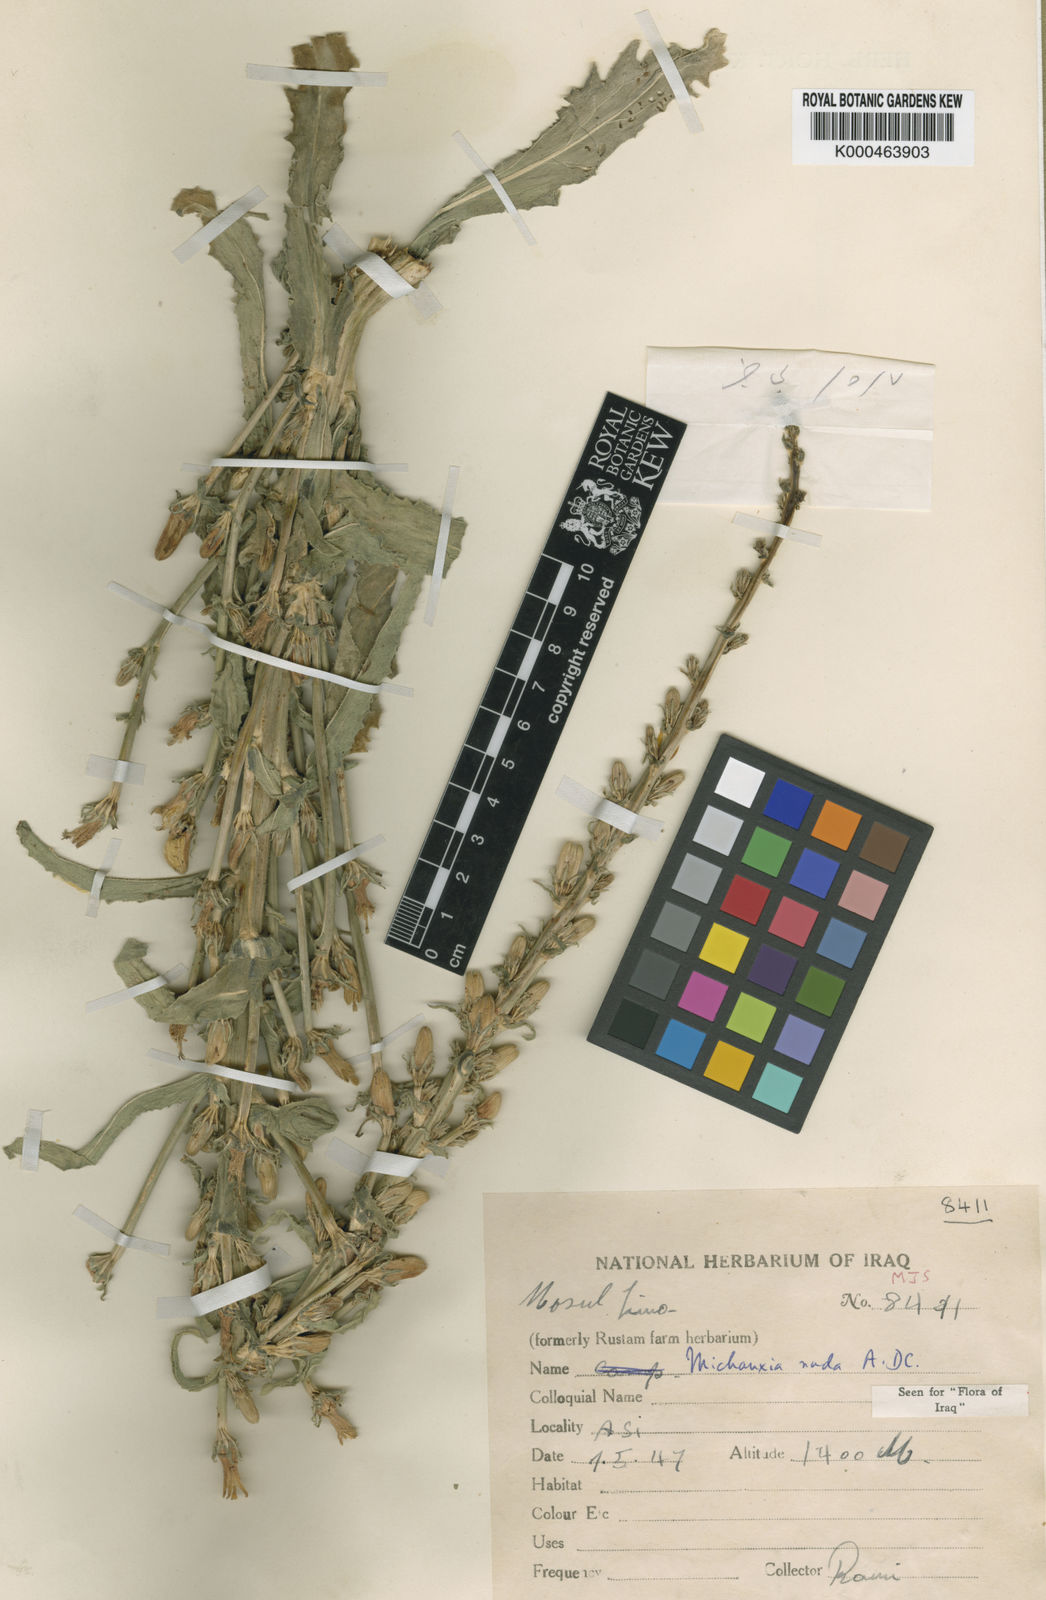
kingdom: Plantae
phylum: Tracheophyta
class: Magnoliopsida
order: Asterales
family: Campanulaceae
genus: Michauxia
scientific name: Michauxia nuda
